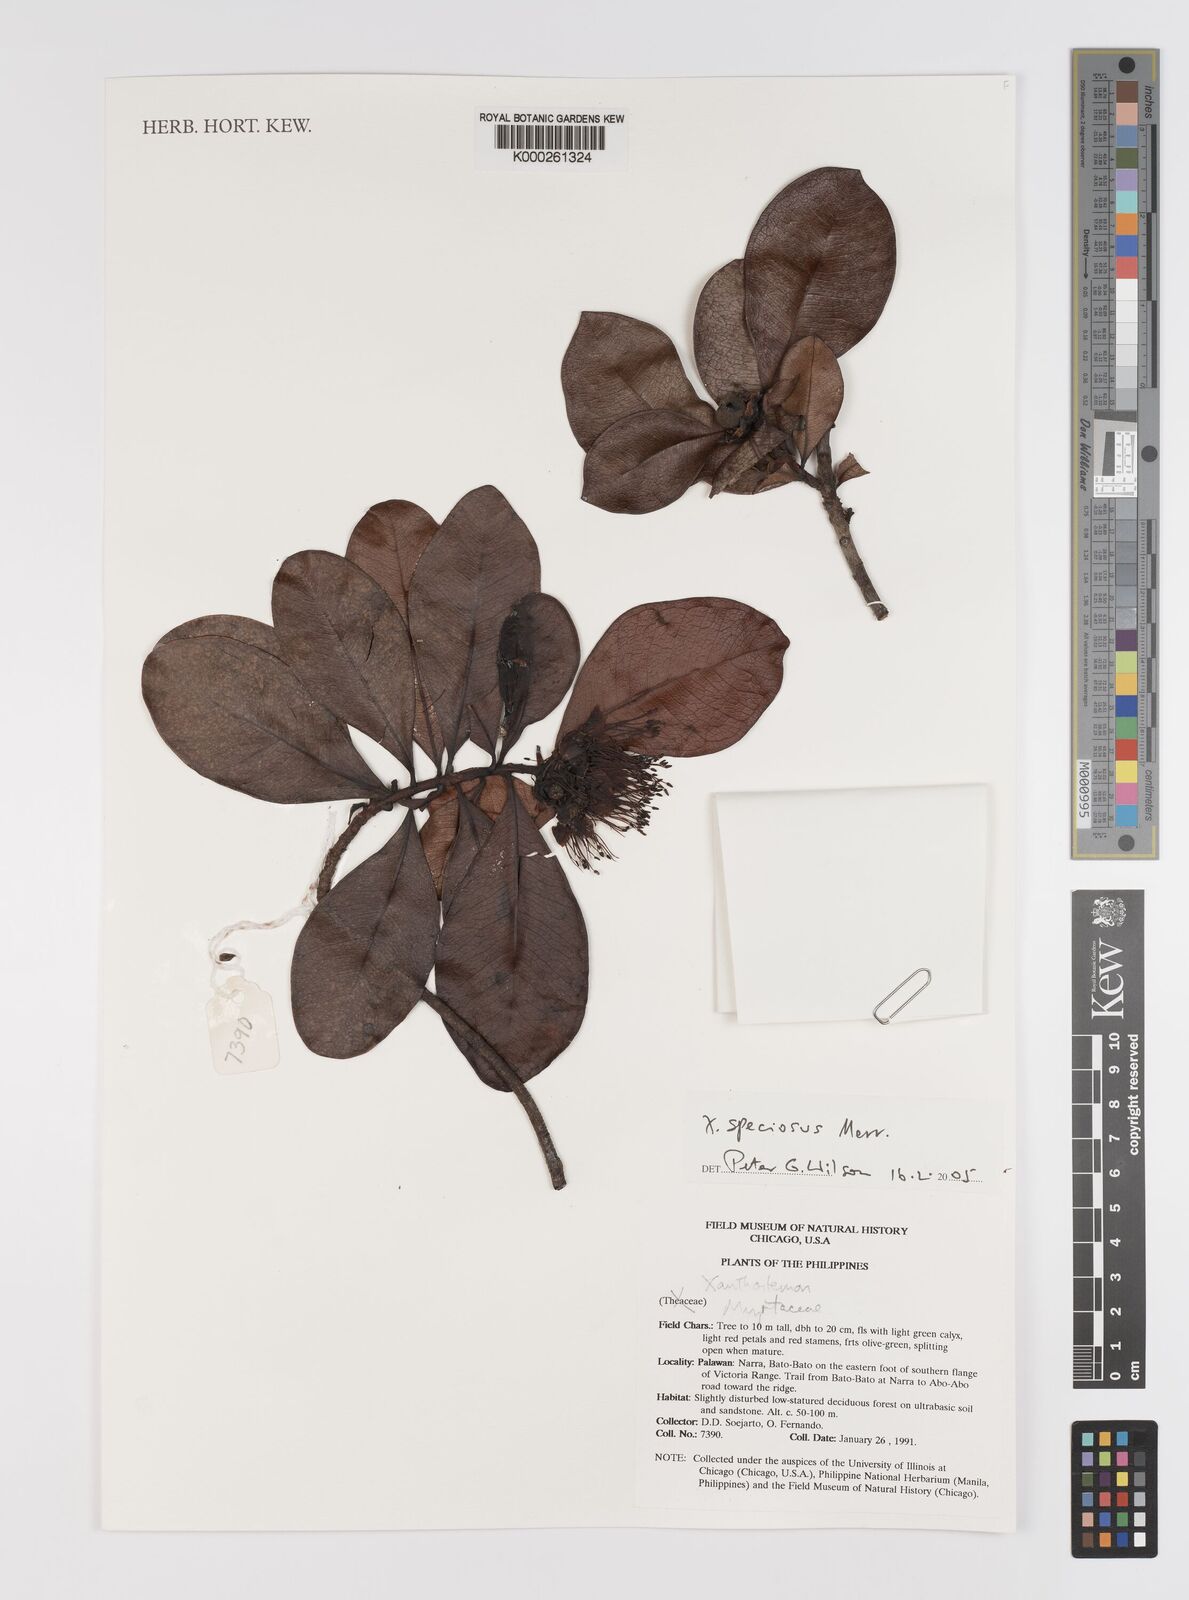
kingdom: Plantae
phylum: Tracheophyta
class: Magnoliopsida
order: Myrtales
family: Myrtaceae
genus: Xanthostemon
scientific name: Xanthostemon speciosus
